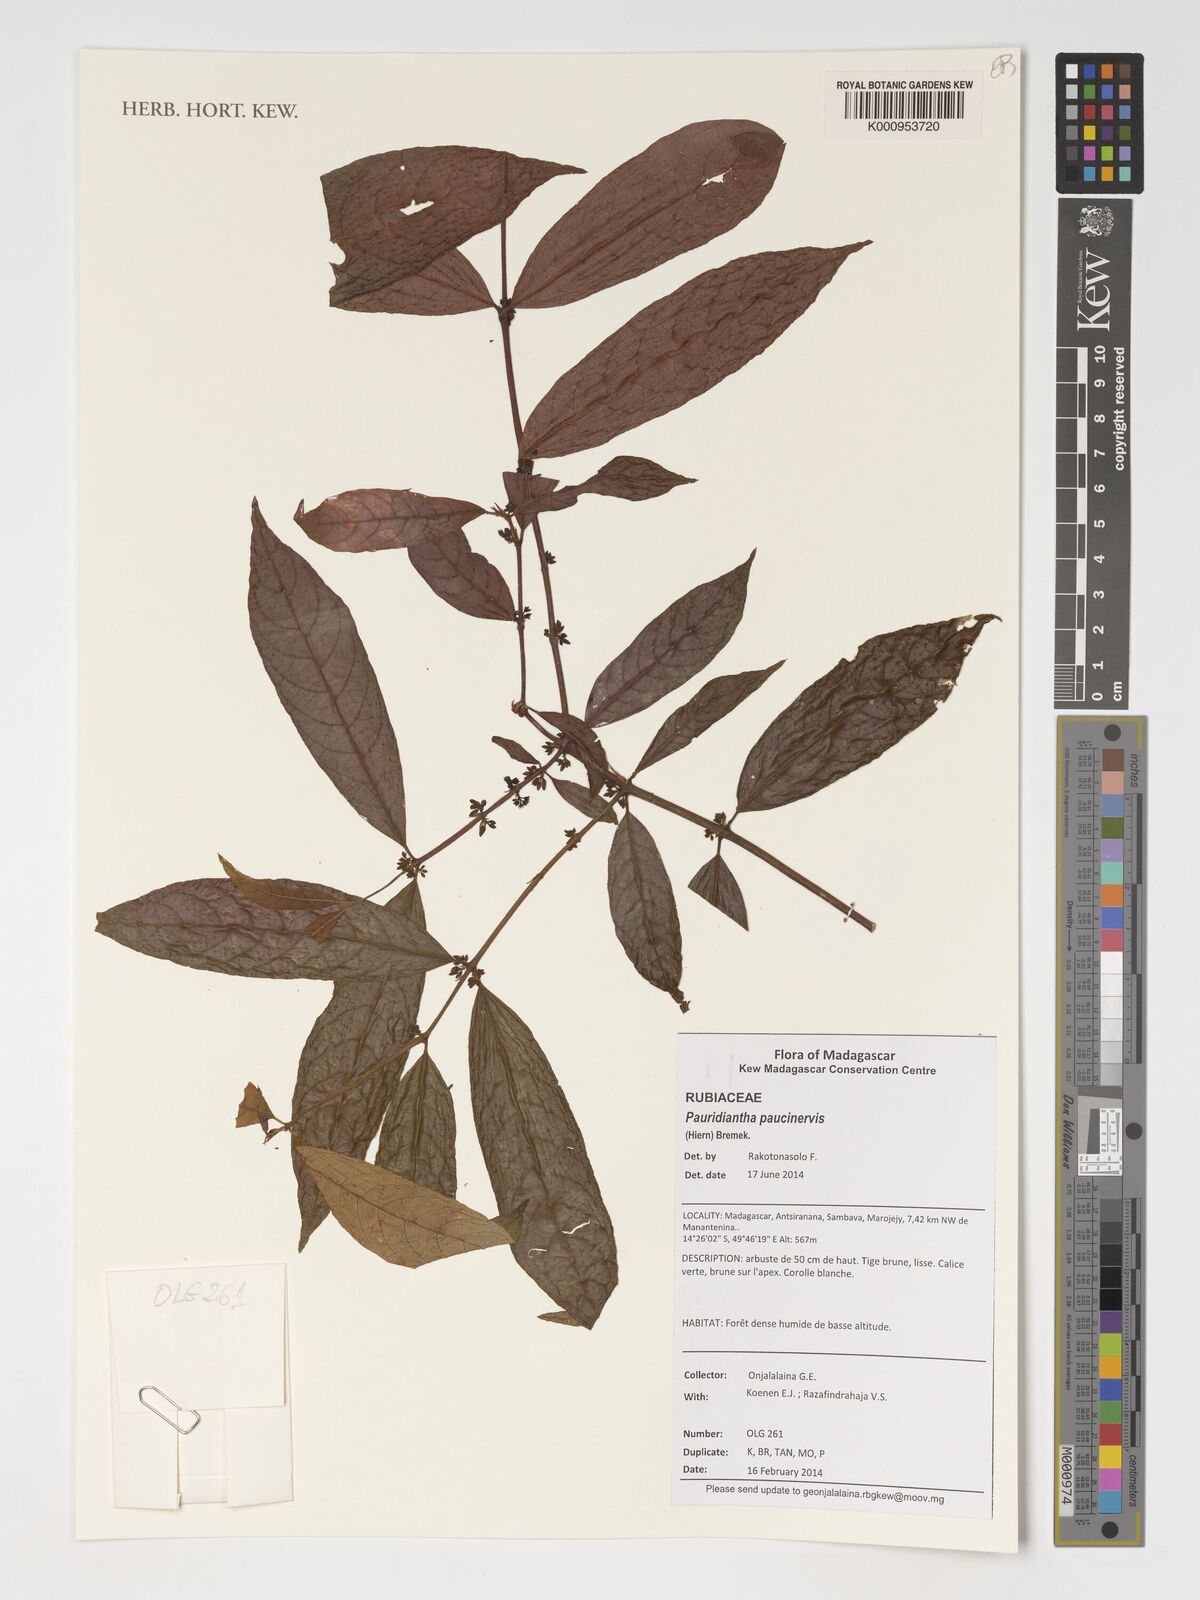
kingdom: Plantae
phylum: Tracheophyta
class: Magnoliopsida
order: Gentianales
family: Rubiaceae
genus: Pauridiantha
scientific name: Pauridiantha paucinervis
